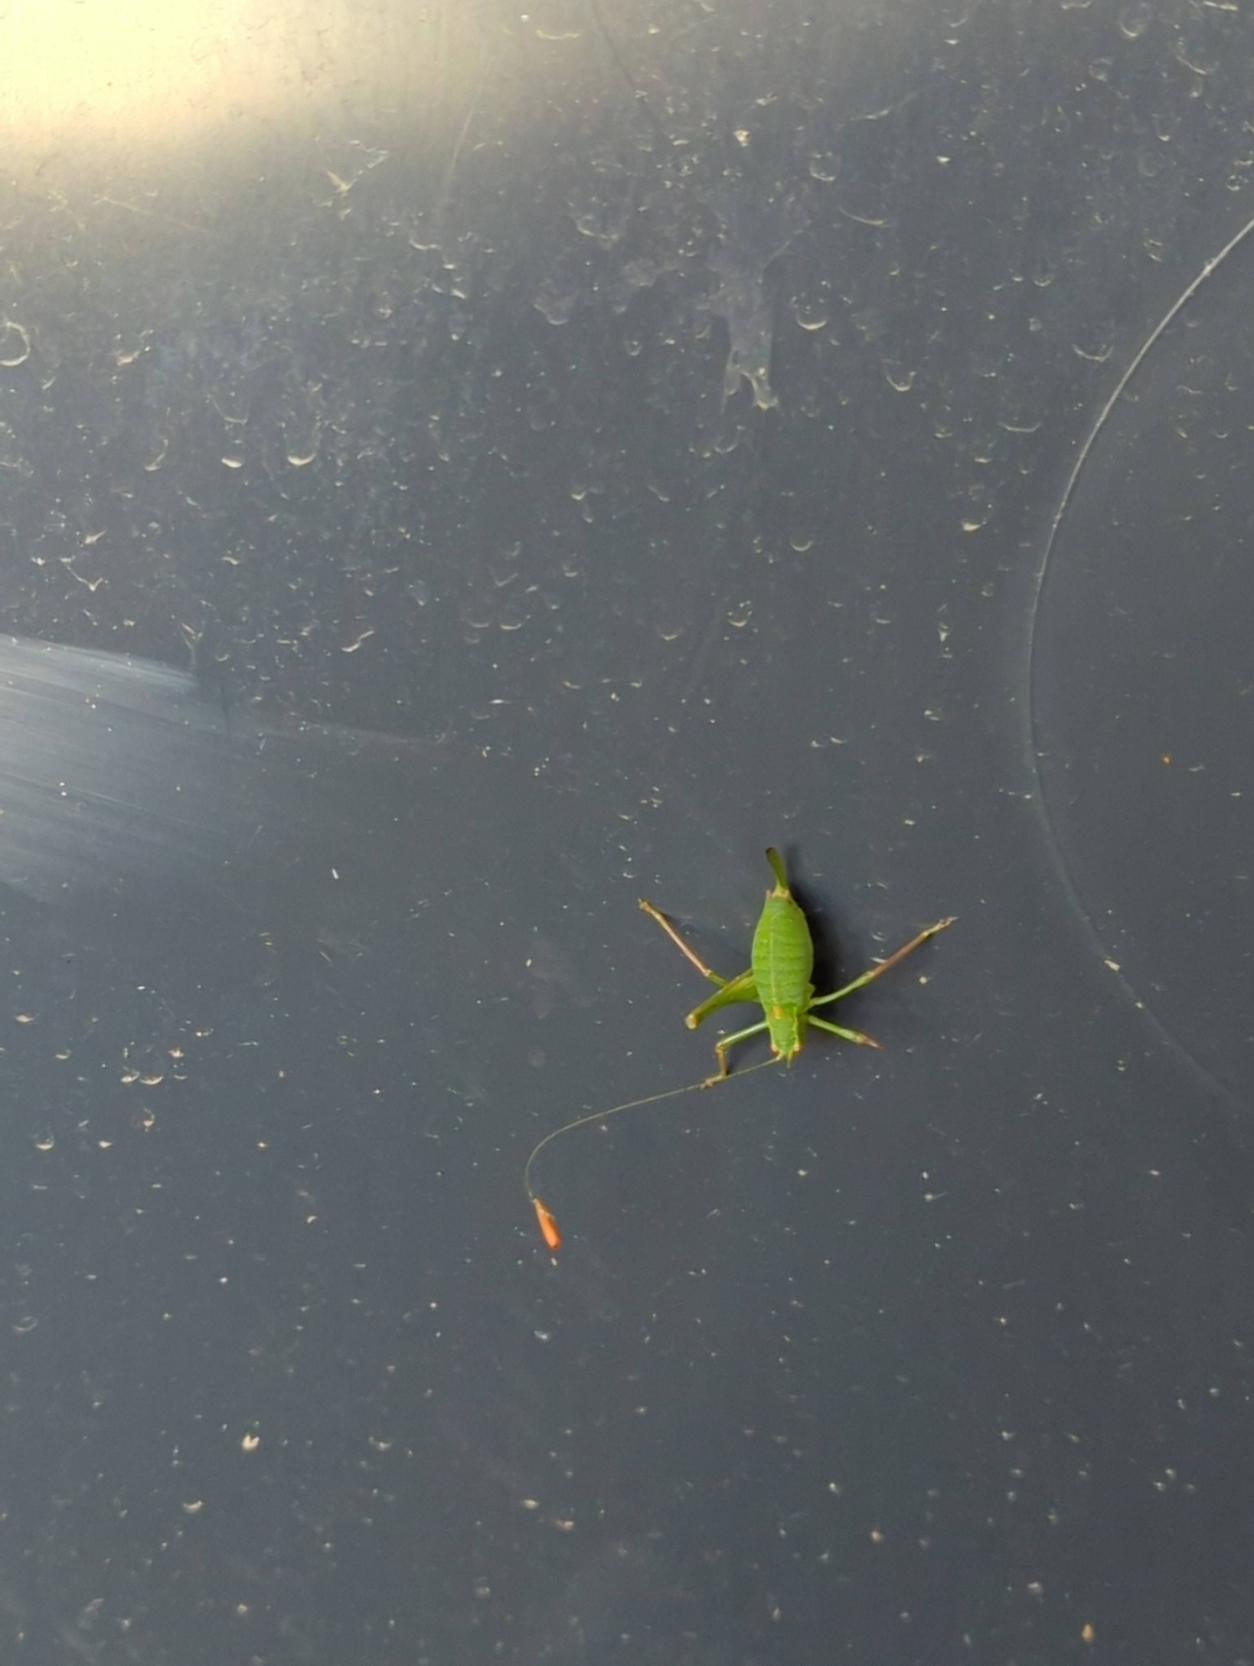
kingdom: Animalia
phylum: Arthropoda
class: Insecta
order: Orthoptera
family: Tettigoniidae
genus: Leptophyes
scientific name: Leptophyes punctatissima
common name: Krumknivgræshoppe
